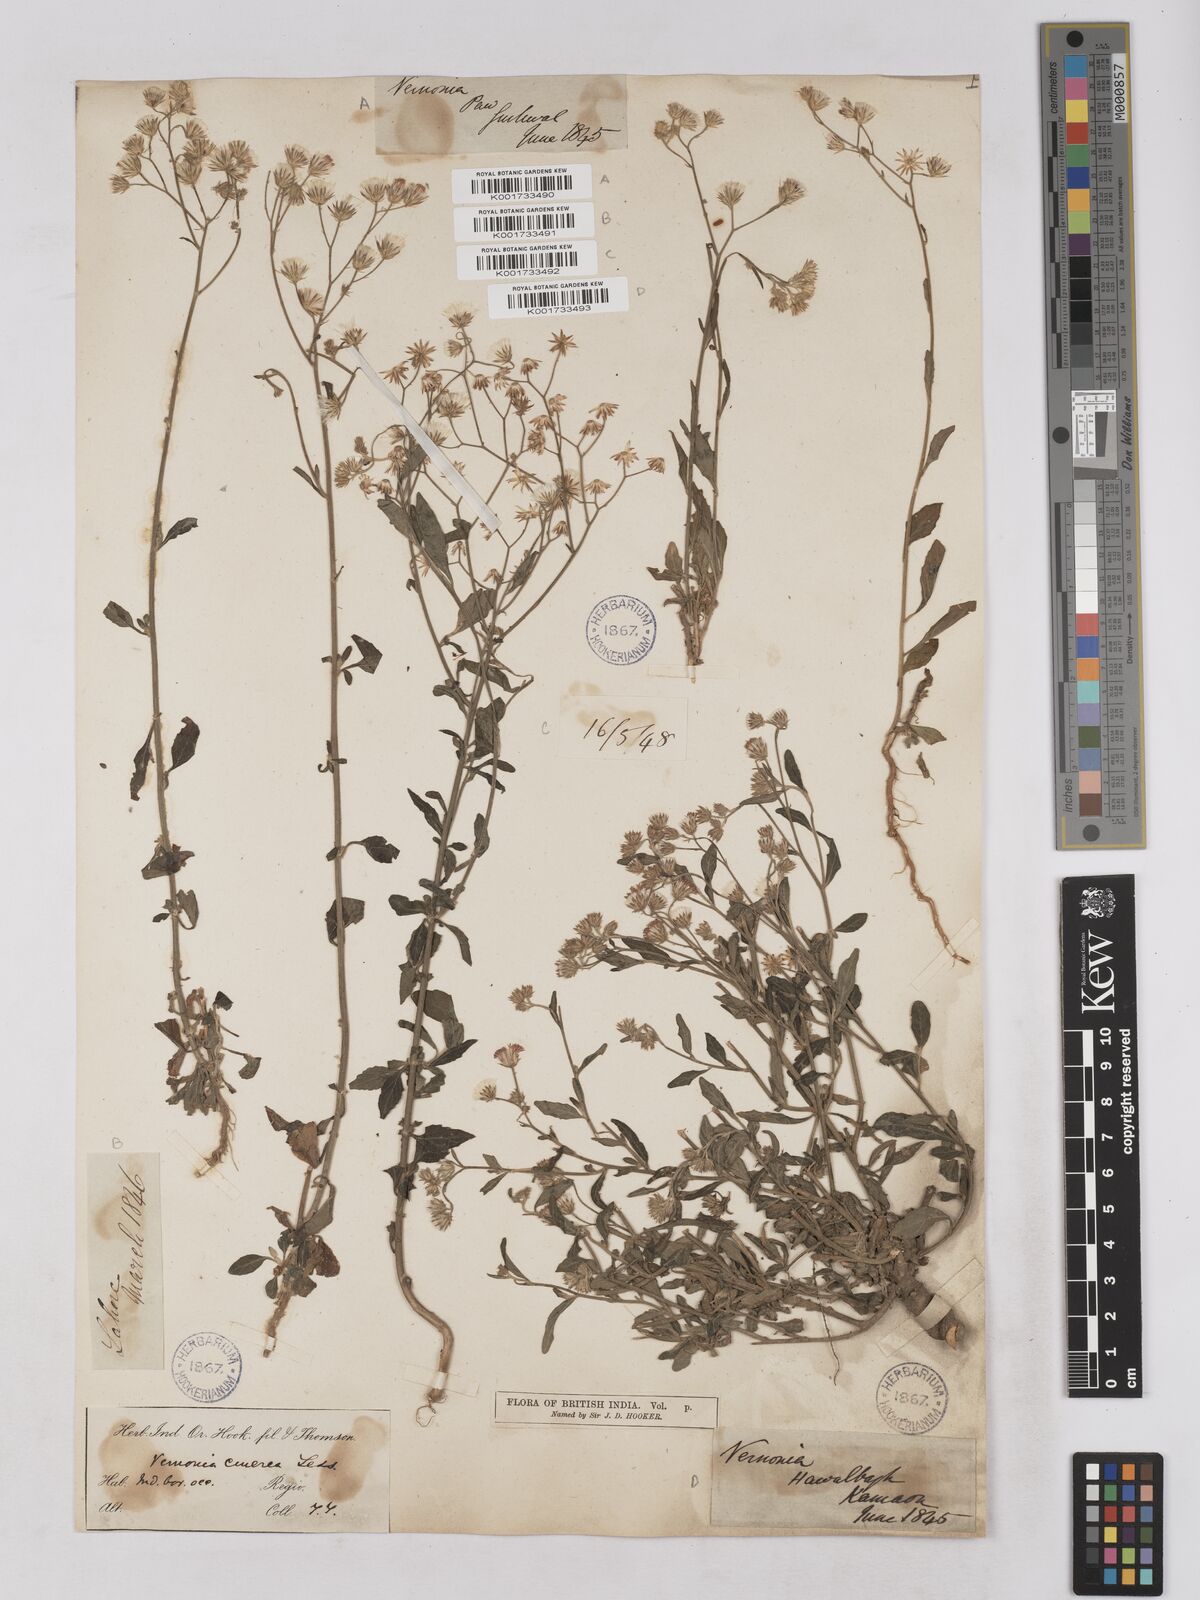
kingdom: Plantae
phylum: Tracheophyta
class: Magnoliopsida
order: Asterales
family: Asteraceae
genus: Cyanthillium
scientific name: Cyanthillium cinereum
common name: Little ironweed
